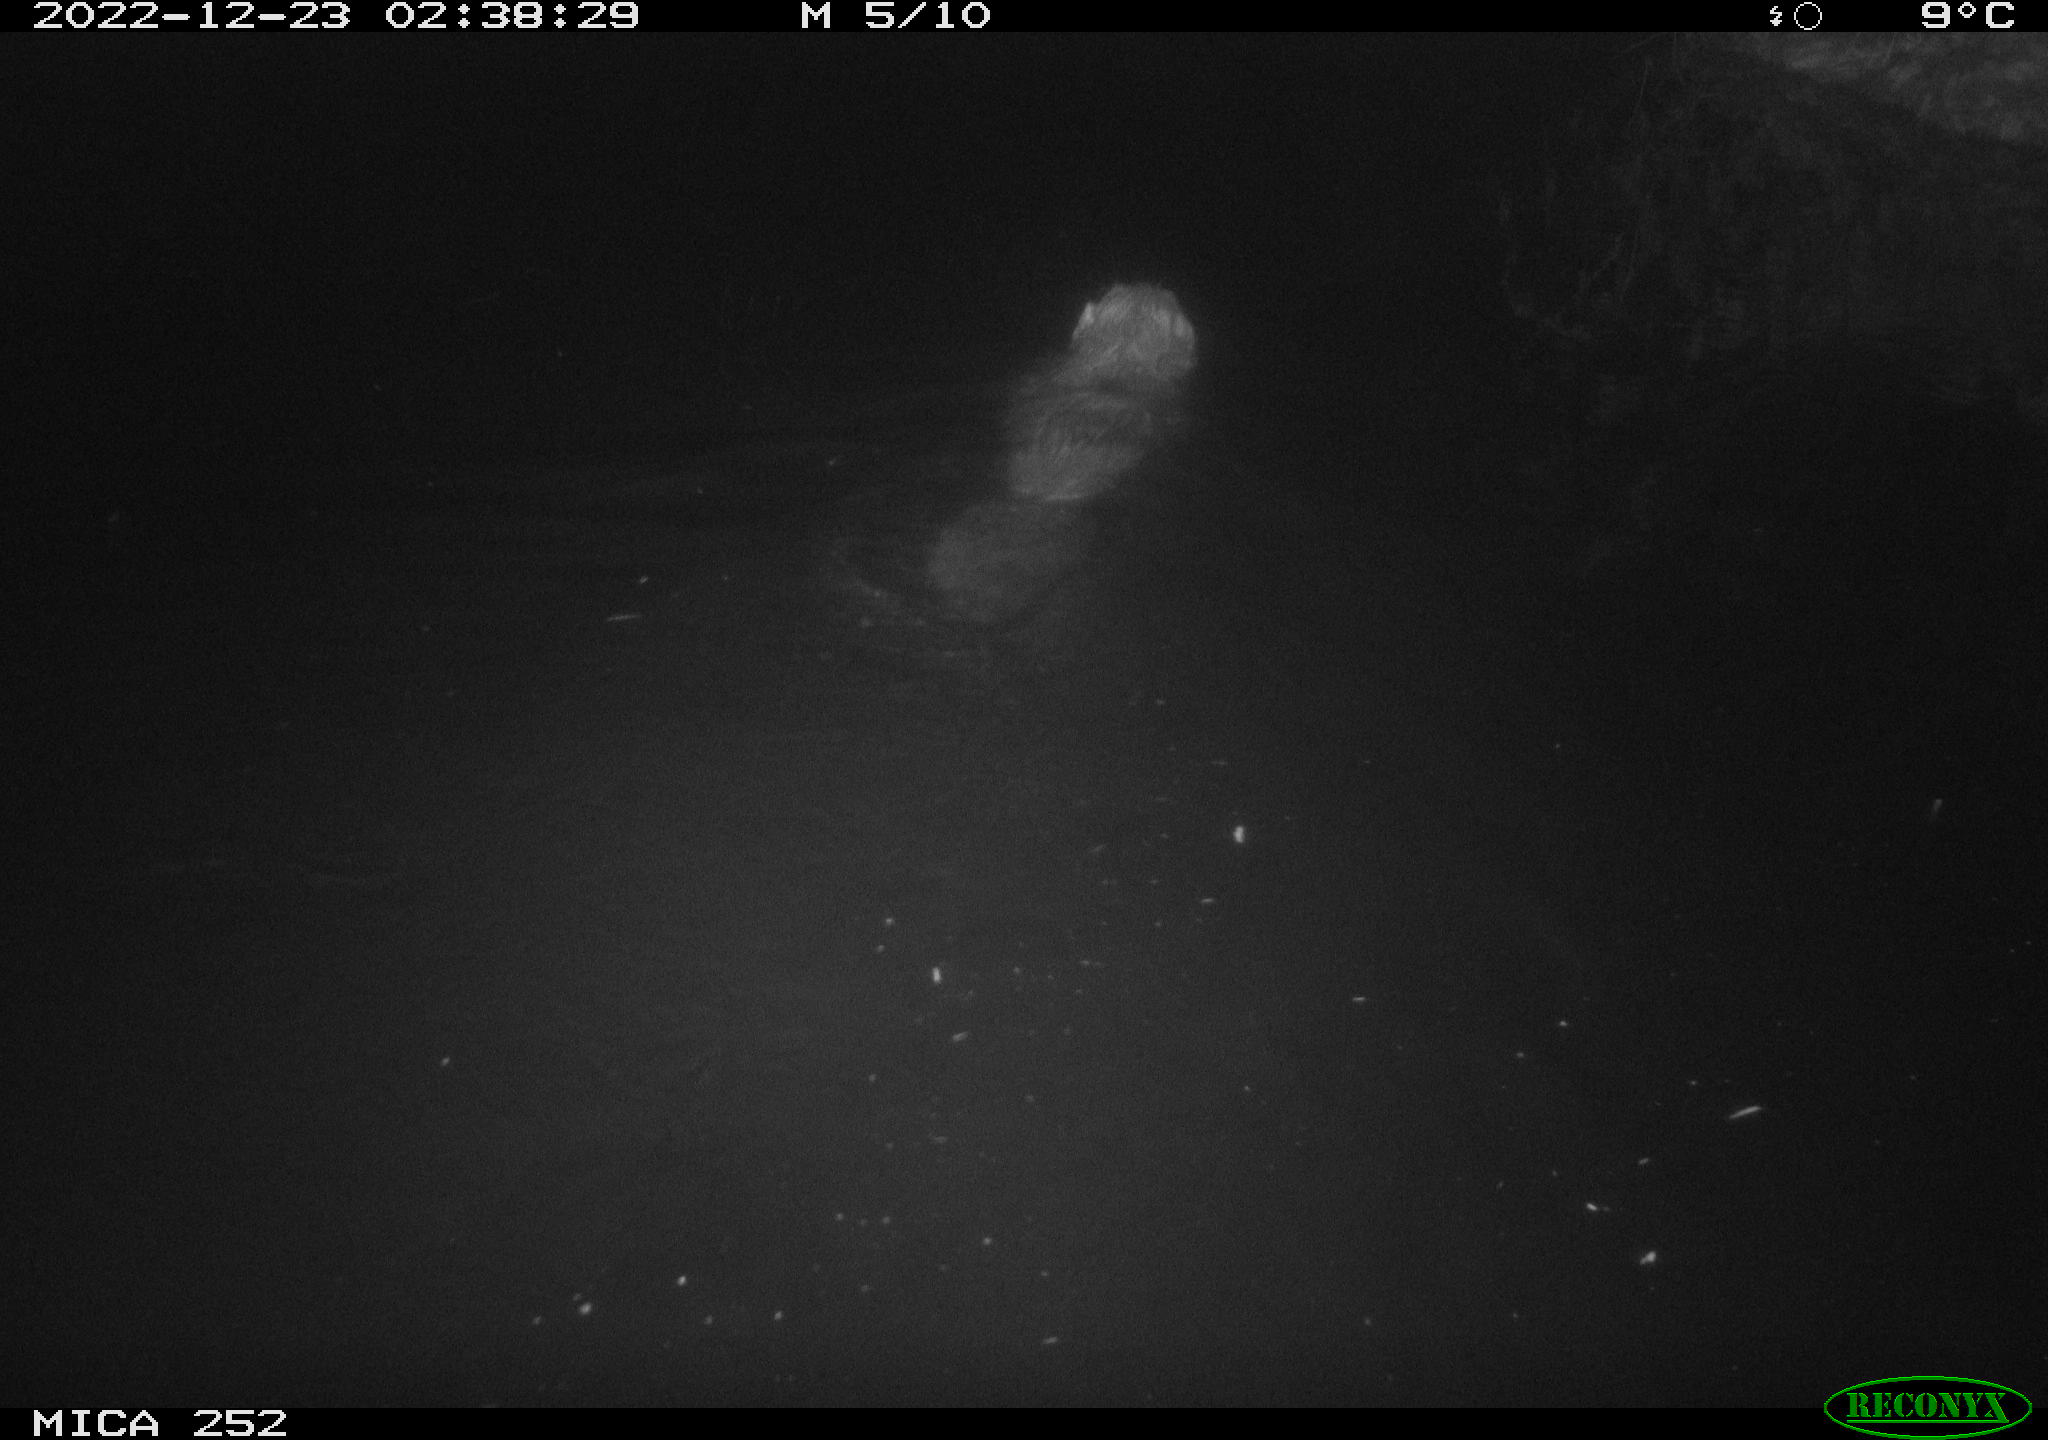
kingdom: Animalia
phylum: Chordata
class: Mammalia
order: Rodentia
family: Castoridae
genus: Castor
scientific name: Castor fiber
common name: Eurasian beaver
